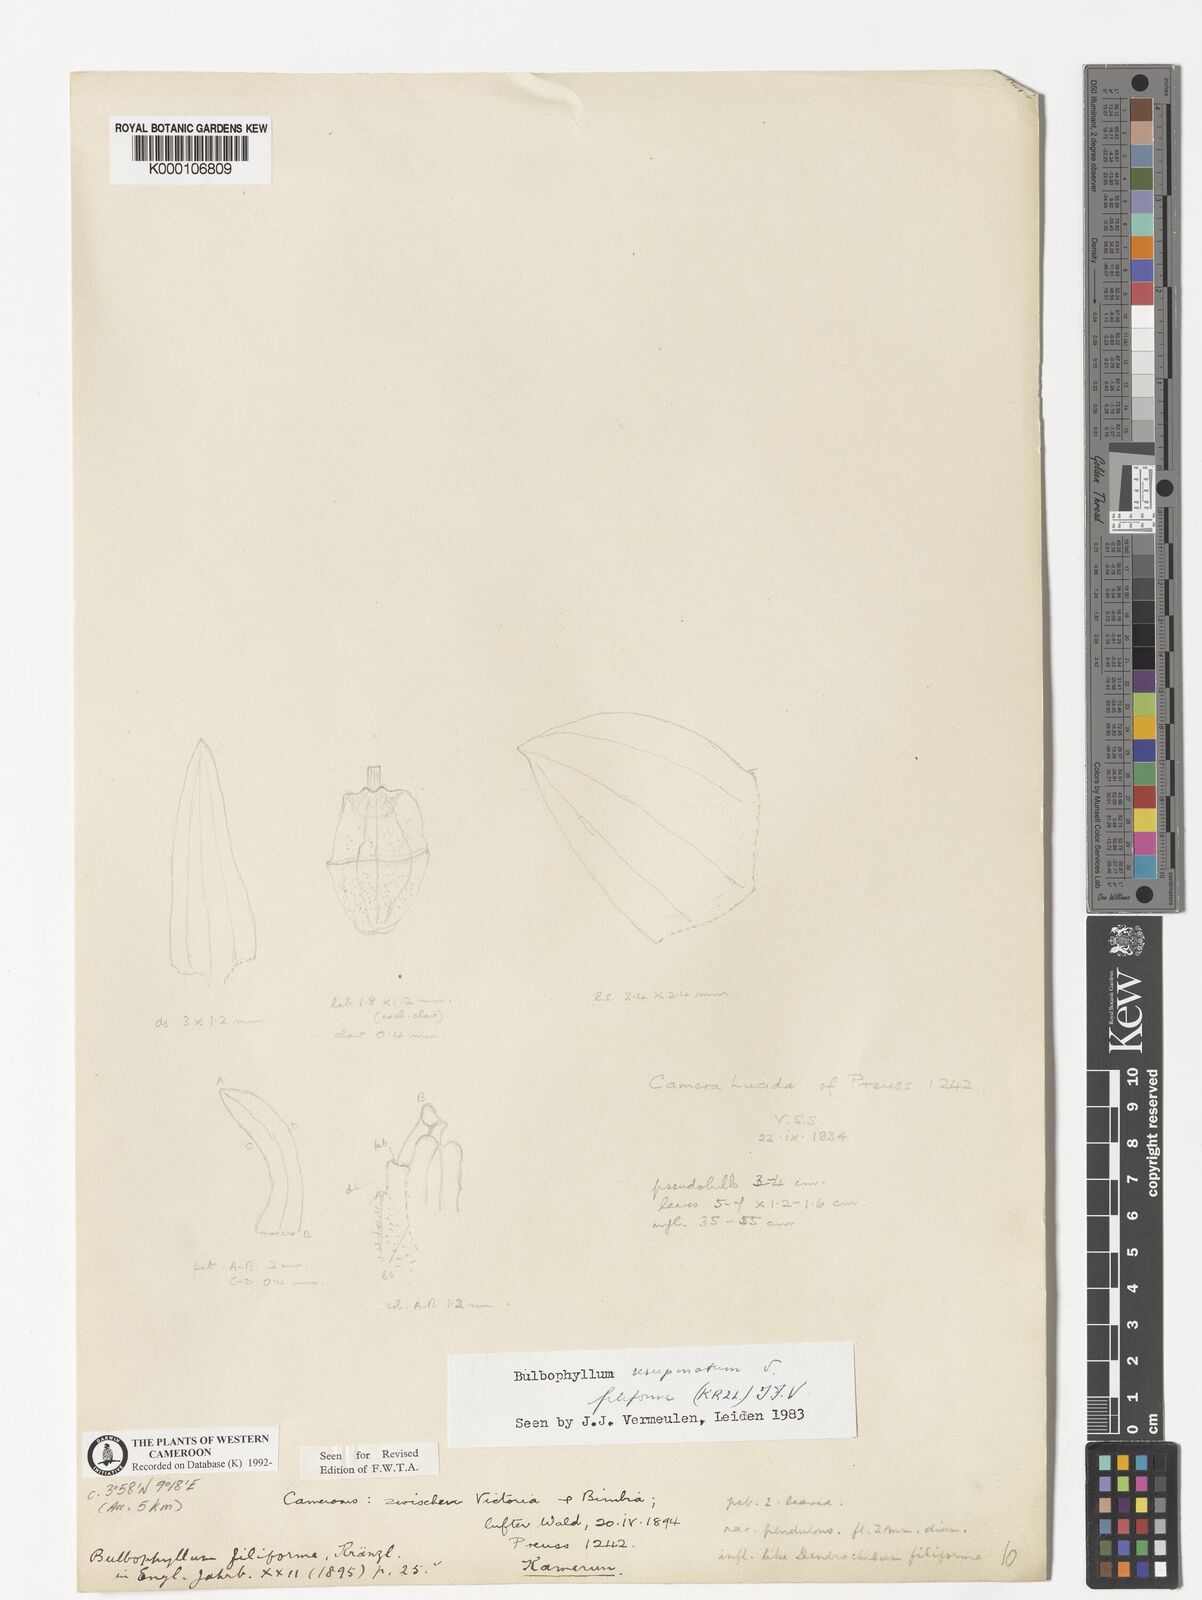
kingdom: Plantae
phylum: Tracheophyta
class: Liliopsida
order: Asparagales
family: Orchidaceae
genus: Bulbophyllum
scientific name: Bulbophyllum resupinatum
